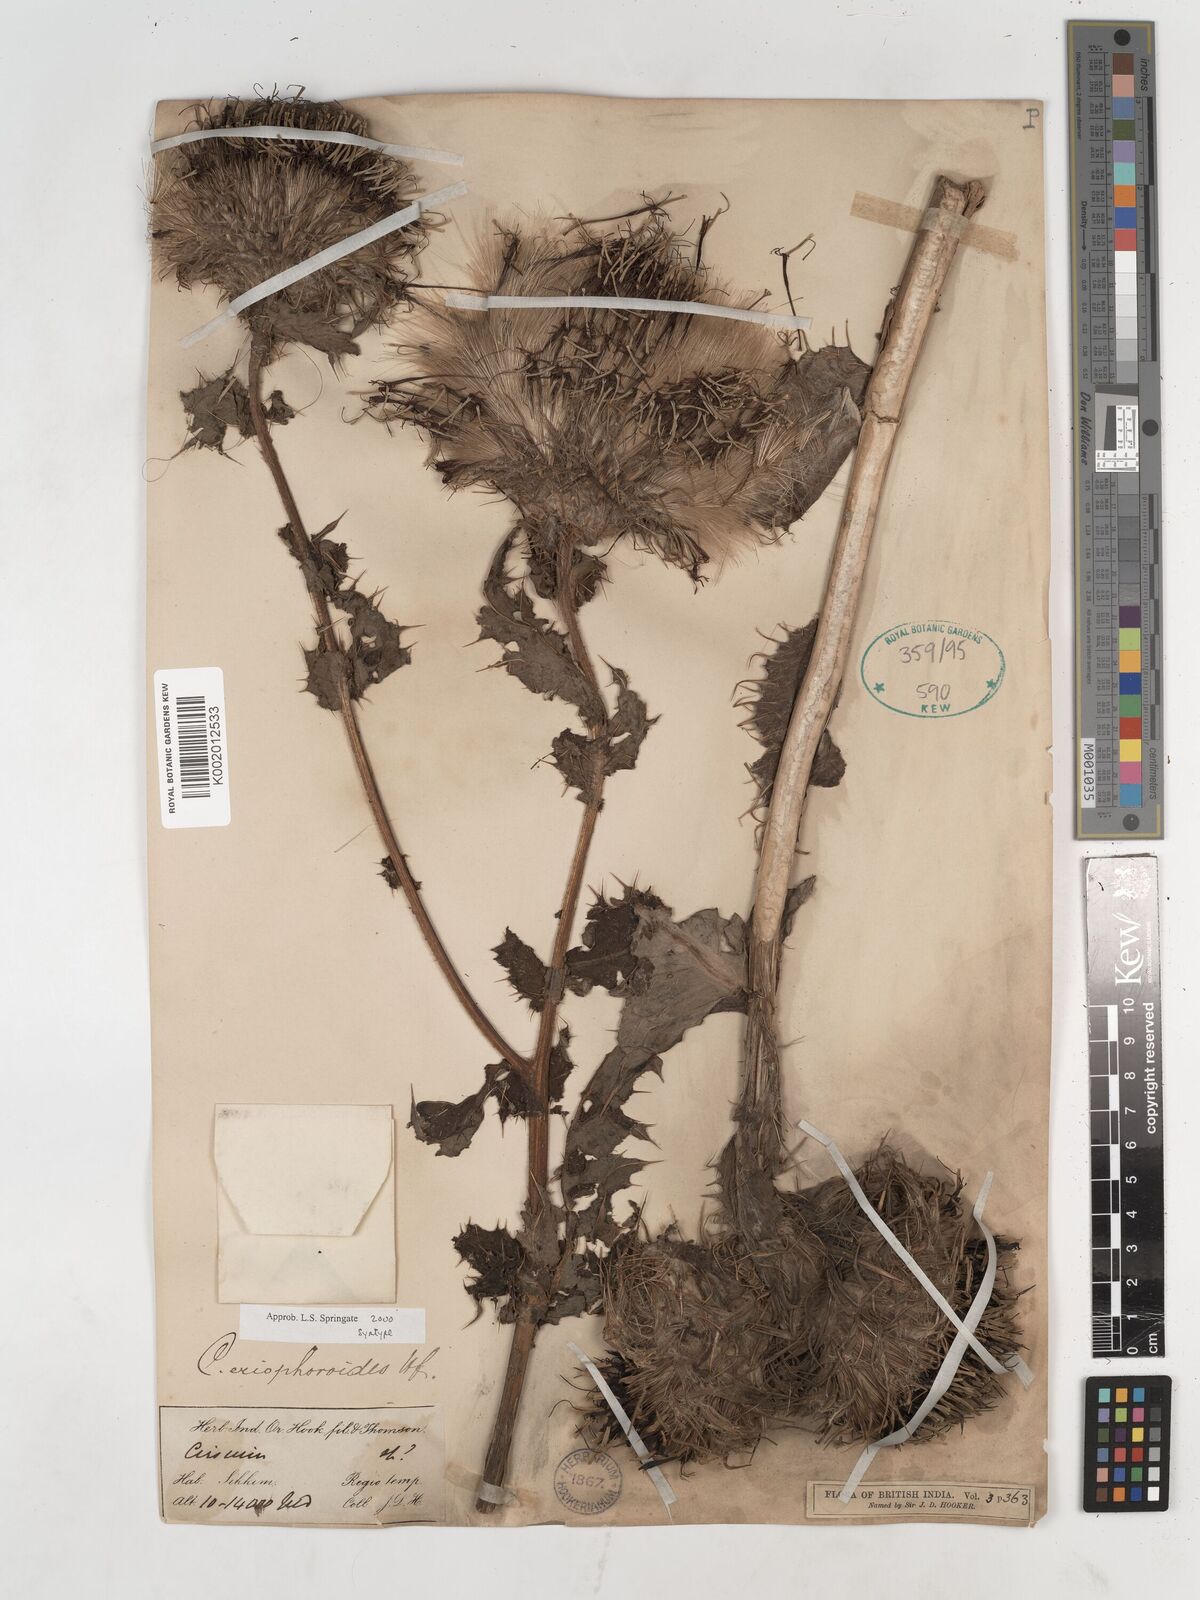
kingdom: Plantae
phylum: Tracheophyta
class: Magnoliopsida
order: Asterales
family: Asteraceae
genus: Cirsium
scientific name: Cirsium eriophoroides
